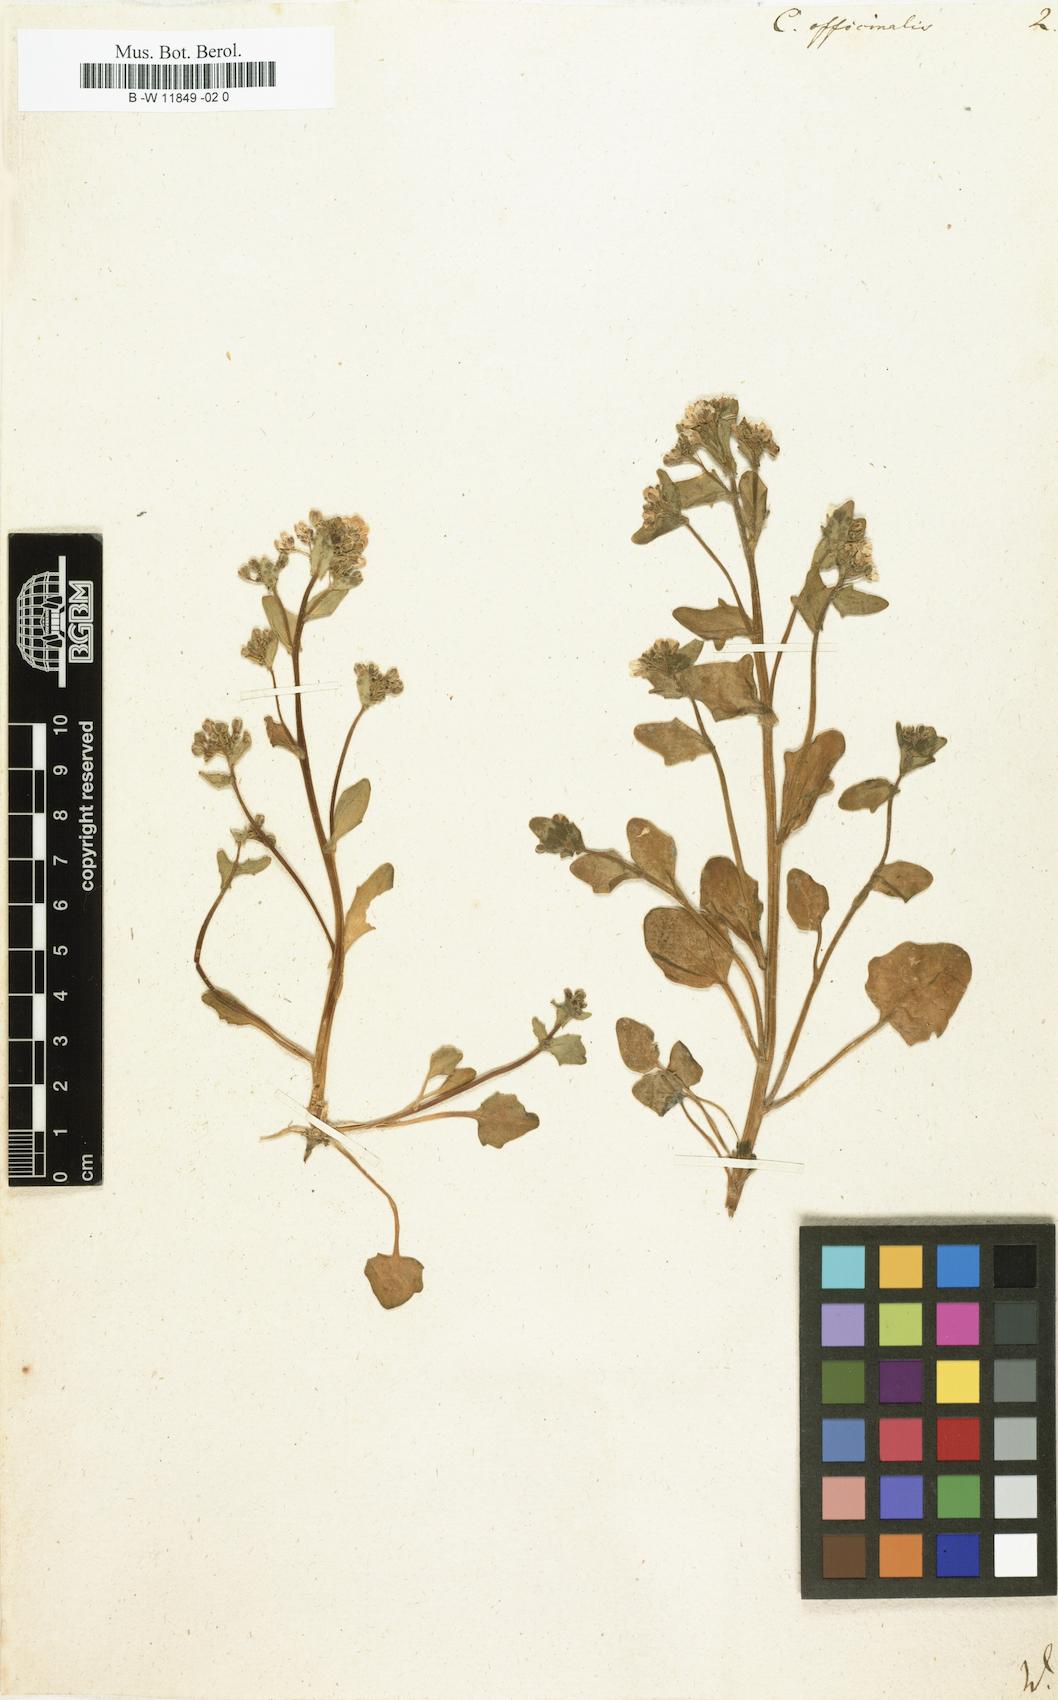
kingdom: Plantae
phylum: Tracheophyta
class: Magnoliopsida
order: Brassicales
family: Brassicaceae
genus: Cochlearia
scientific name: Cochlearia officinalis
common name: Scurvy-grass
